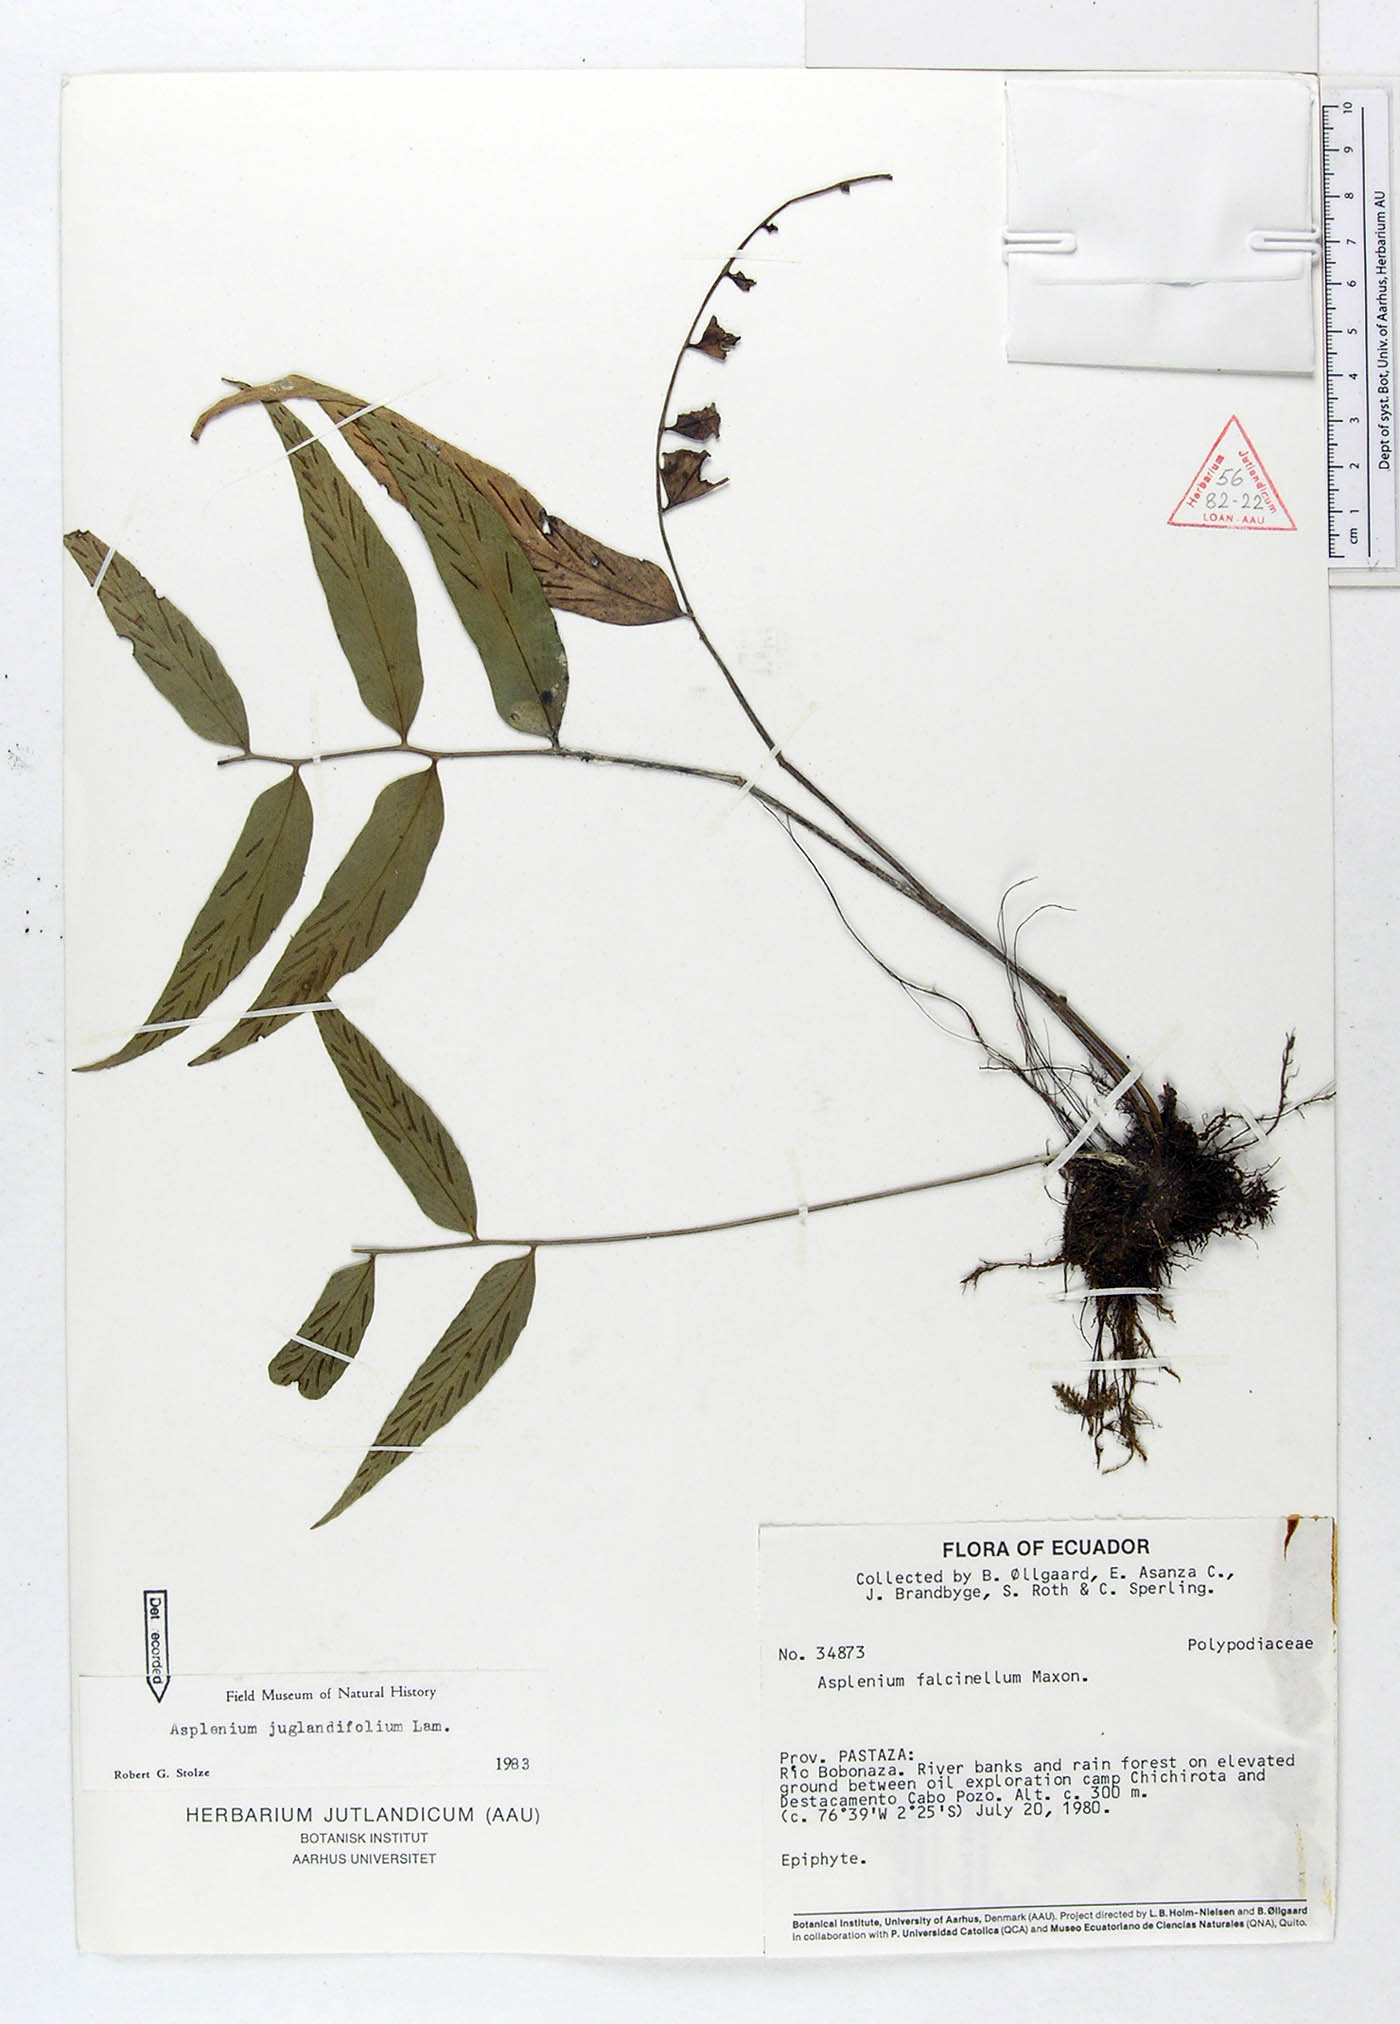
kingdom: Plantae
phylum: Tracheophyta
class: Polypodiopsida
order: Polypodiales
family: Aspleniaceae
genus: Asplenium
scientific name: Asplenium juglandifolium
